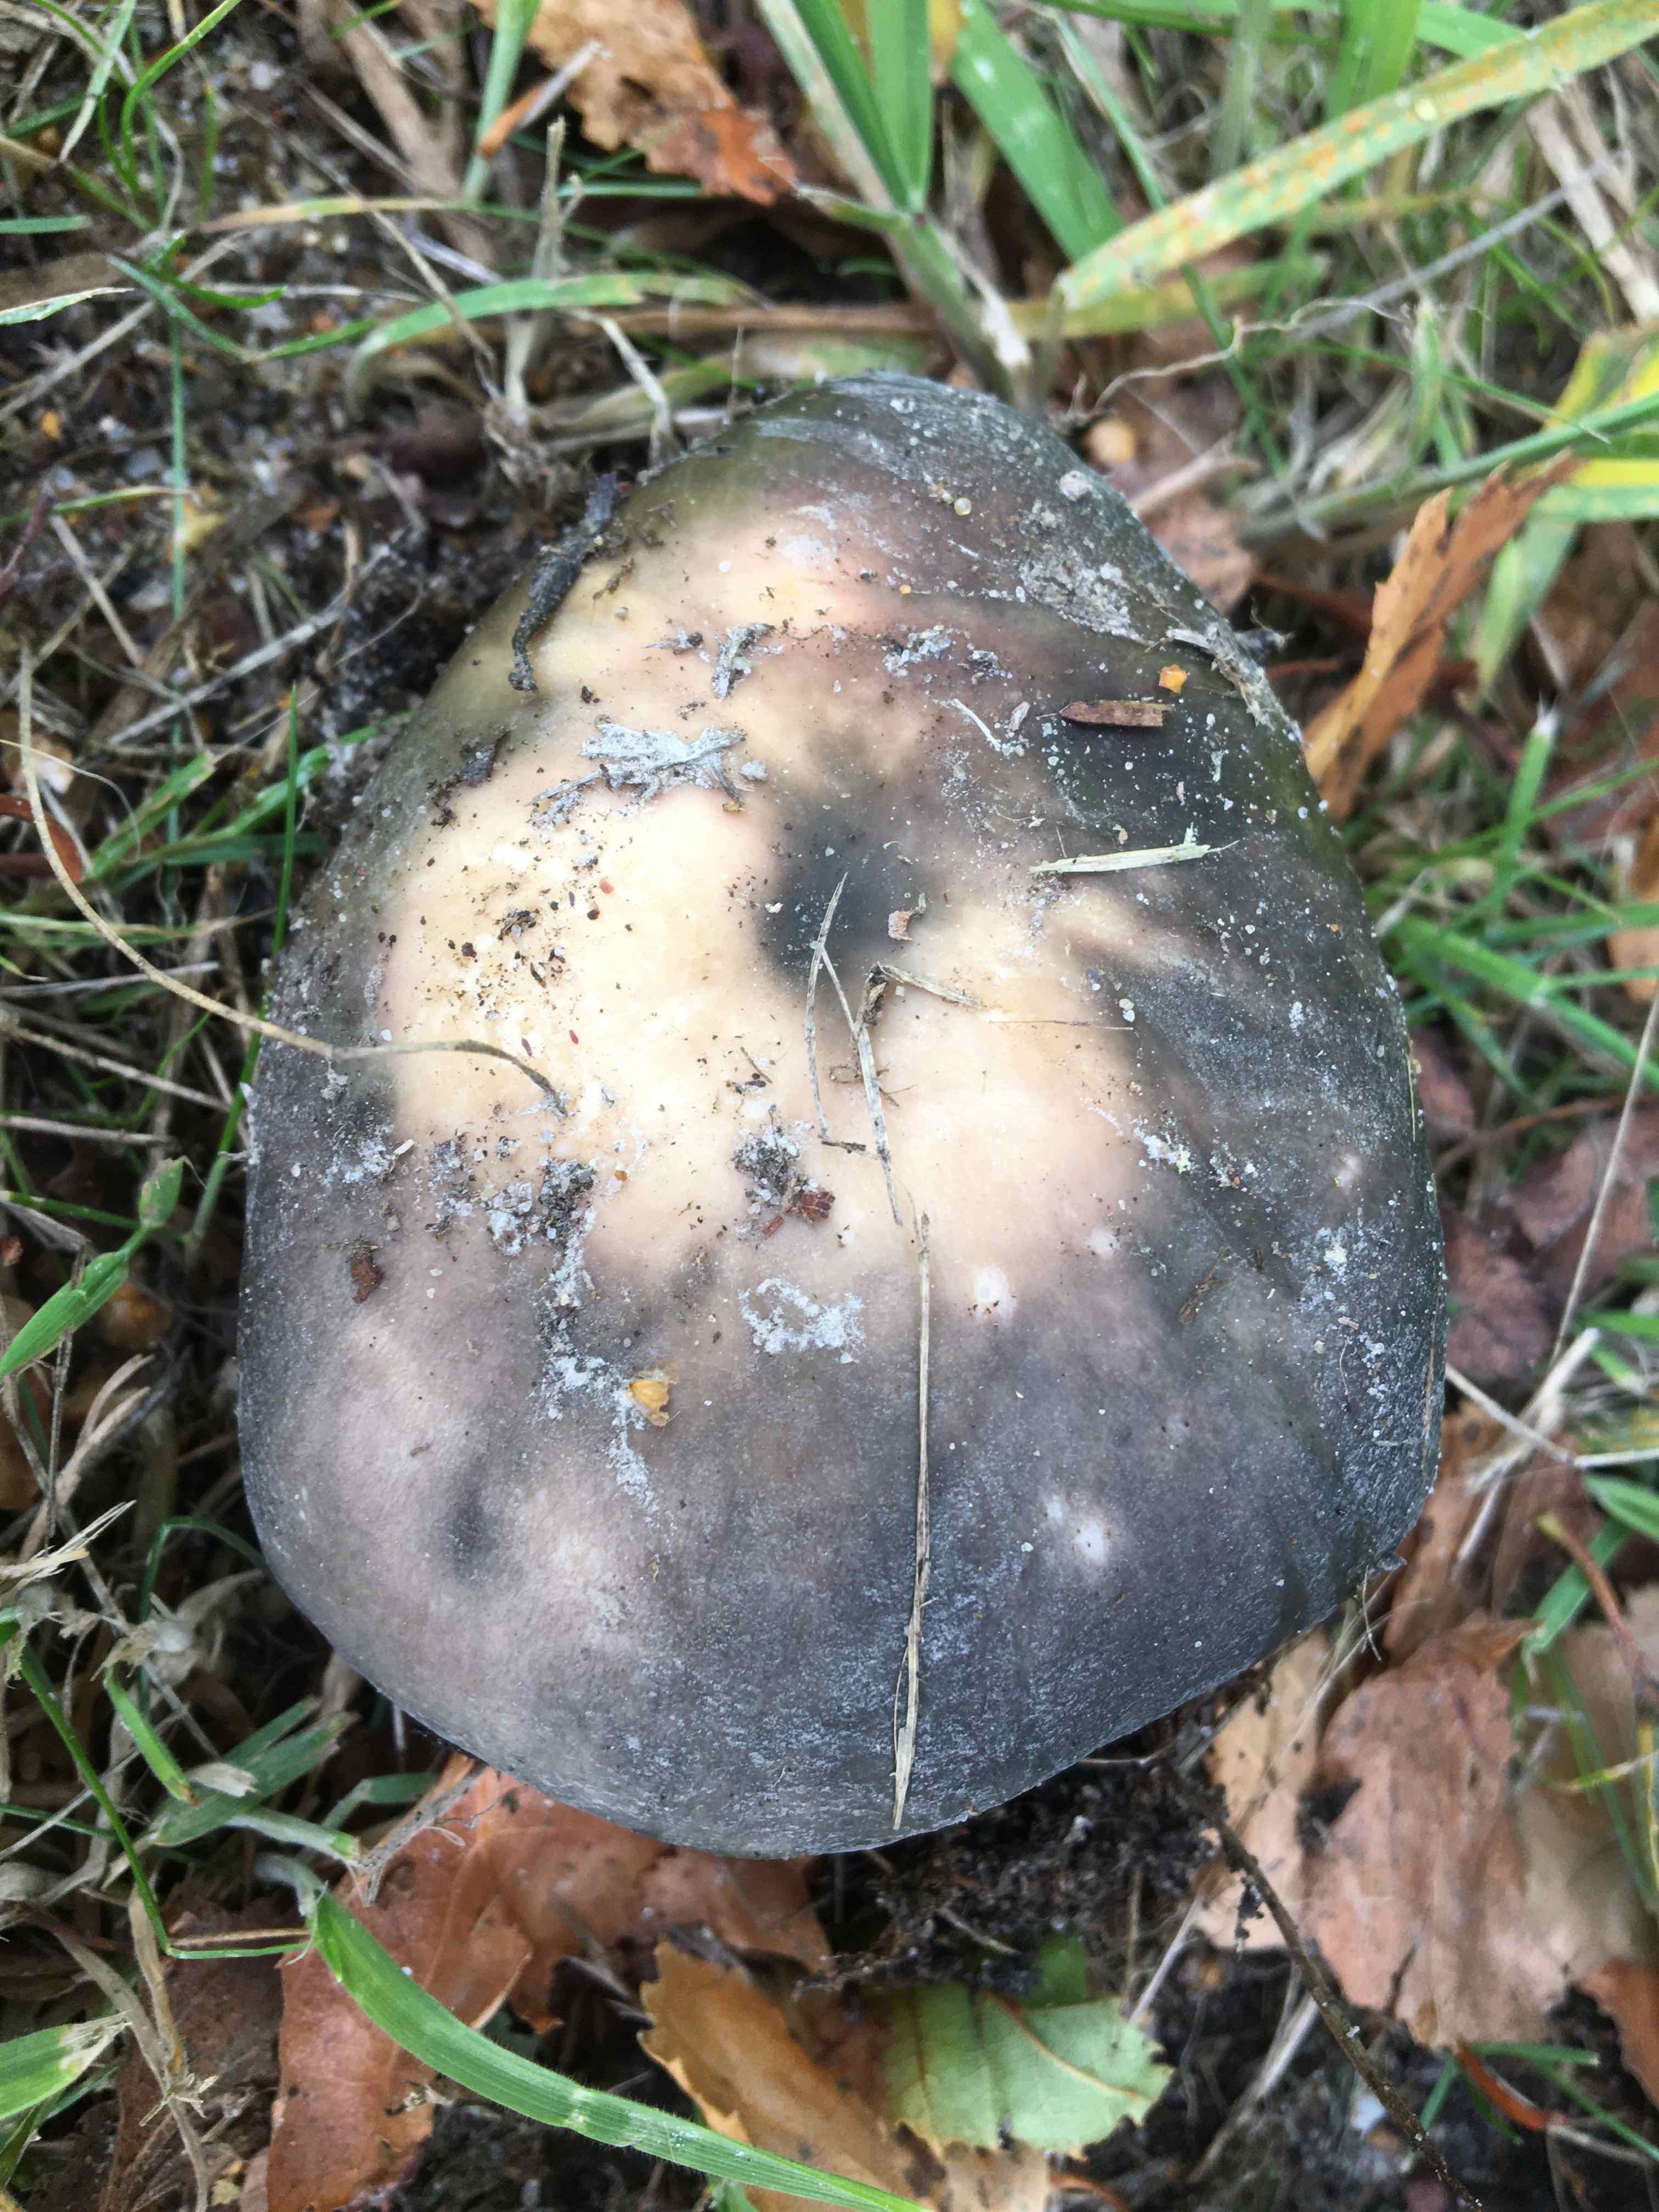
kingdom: Fungi
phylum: Basidiomycota
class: Agaricomycetes
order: Russulales
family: Russulaceae
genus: Russula
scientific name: Russula
